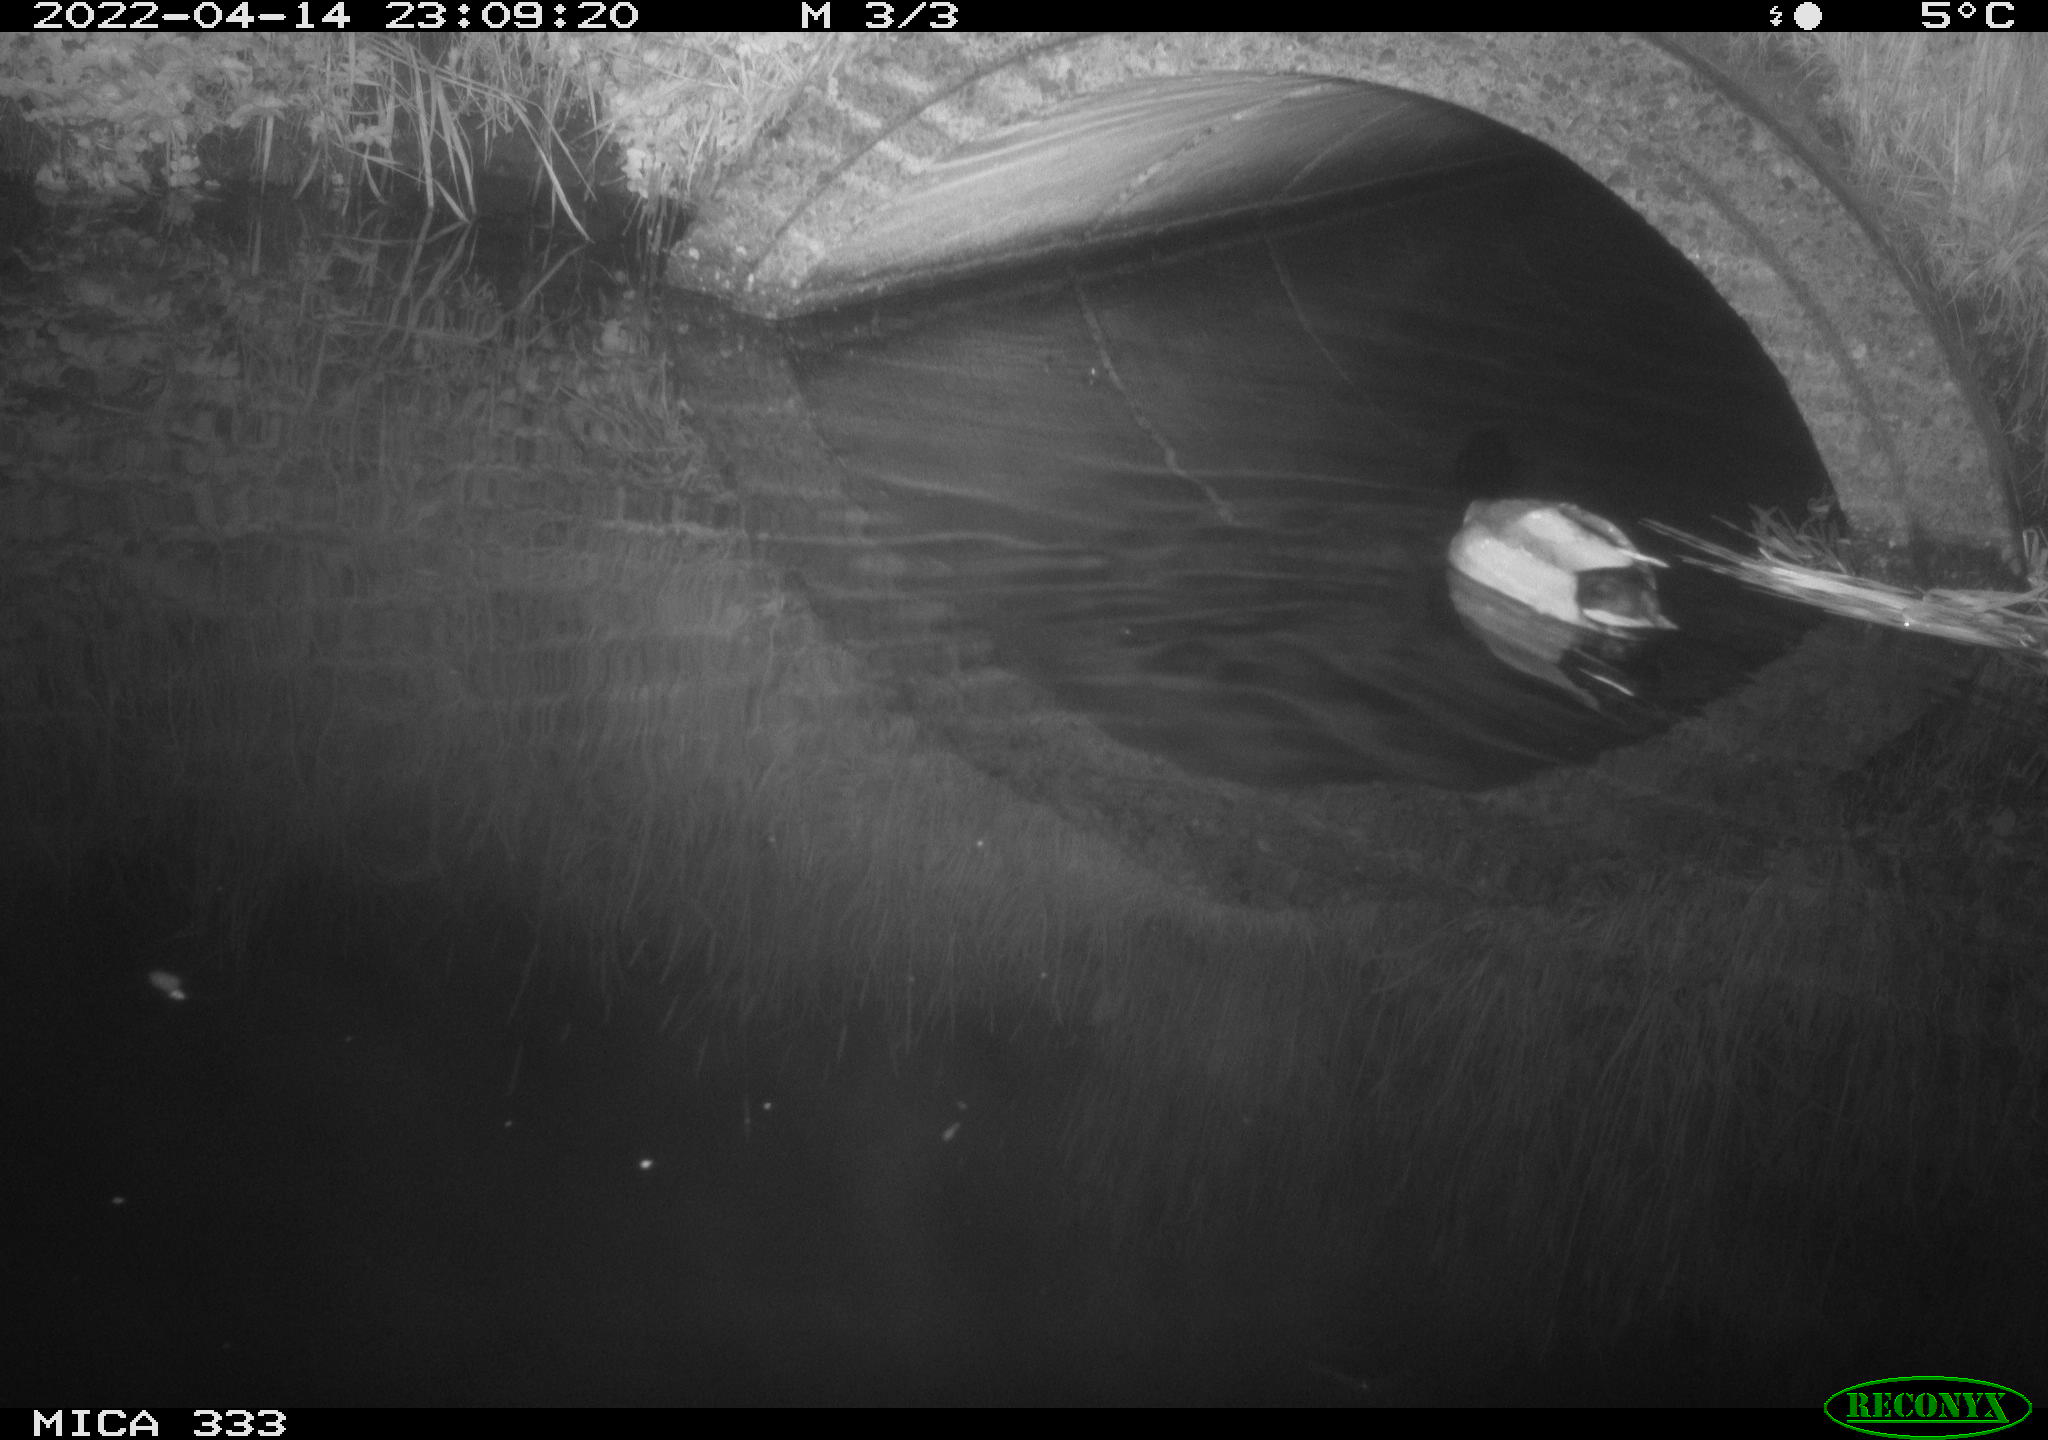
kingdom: Animalia
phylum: Chordata
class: Aves
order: Anseriformes
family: Anatidae
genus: Anas
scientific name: Anas platyrhynchos
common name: Mallard
